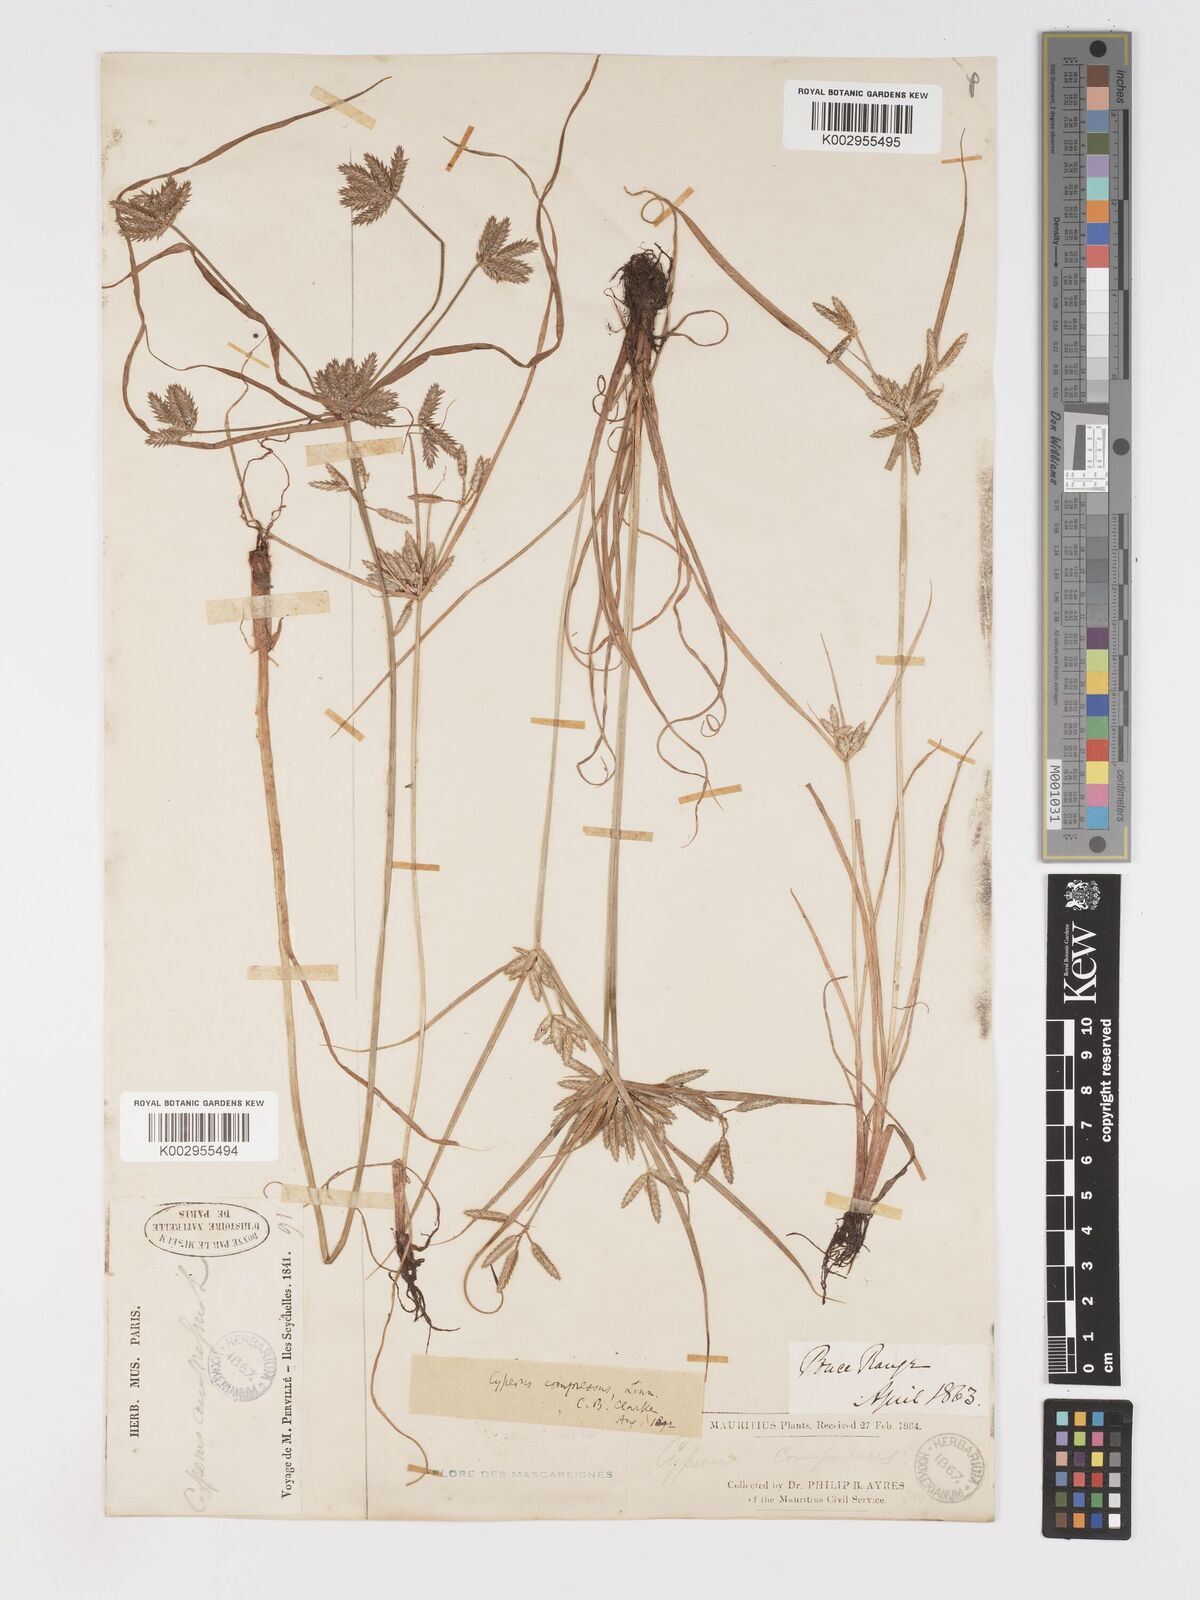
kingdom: Plantae
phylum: Tracheophyta
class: Liliopsida
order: Poales
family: Cyperaceae
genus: Cyperus
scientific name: Cyperus compressus
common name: Poorland flatsedge
